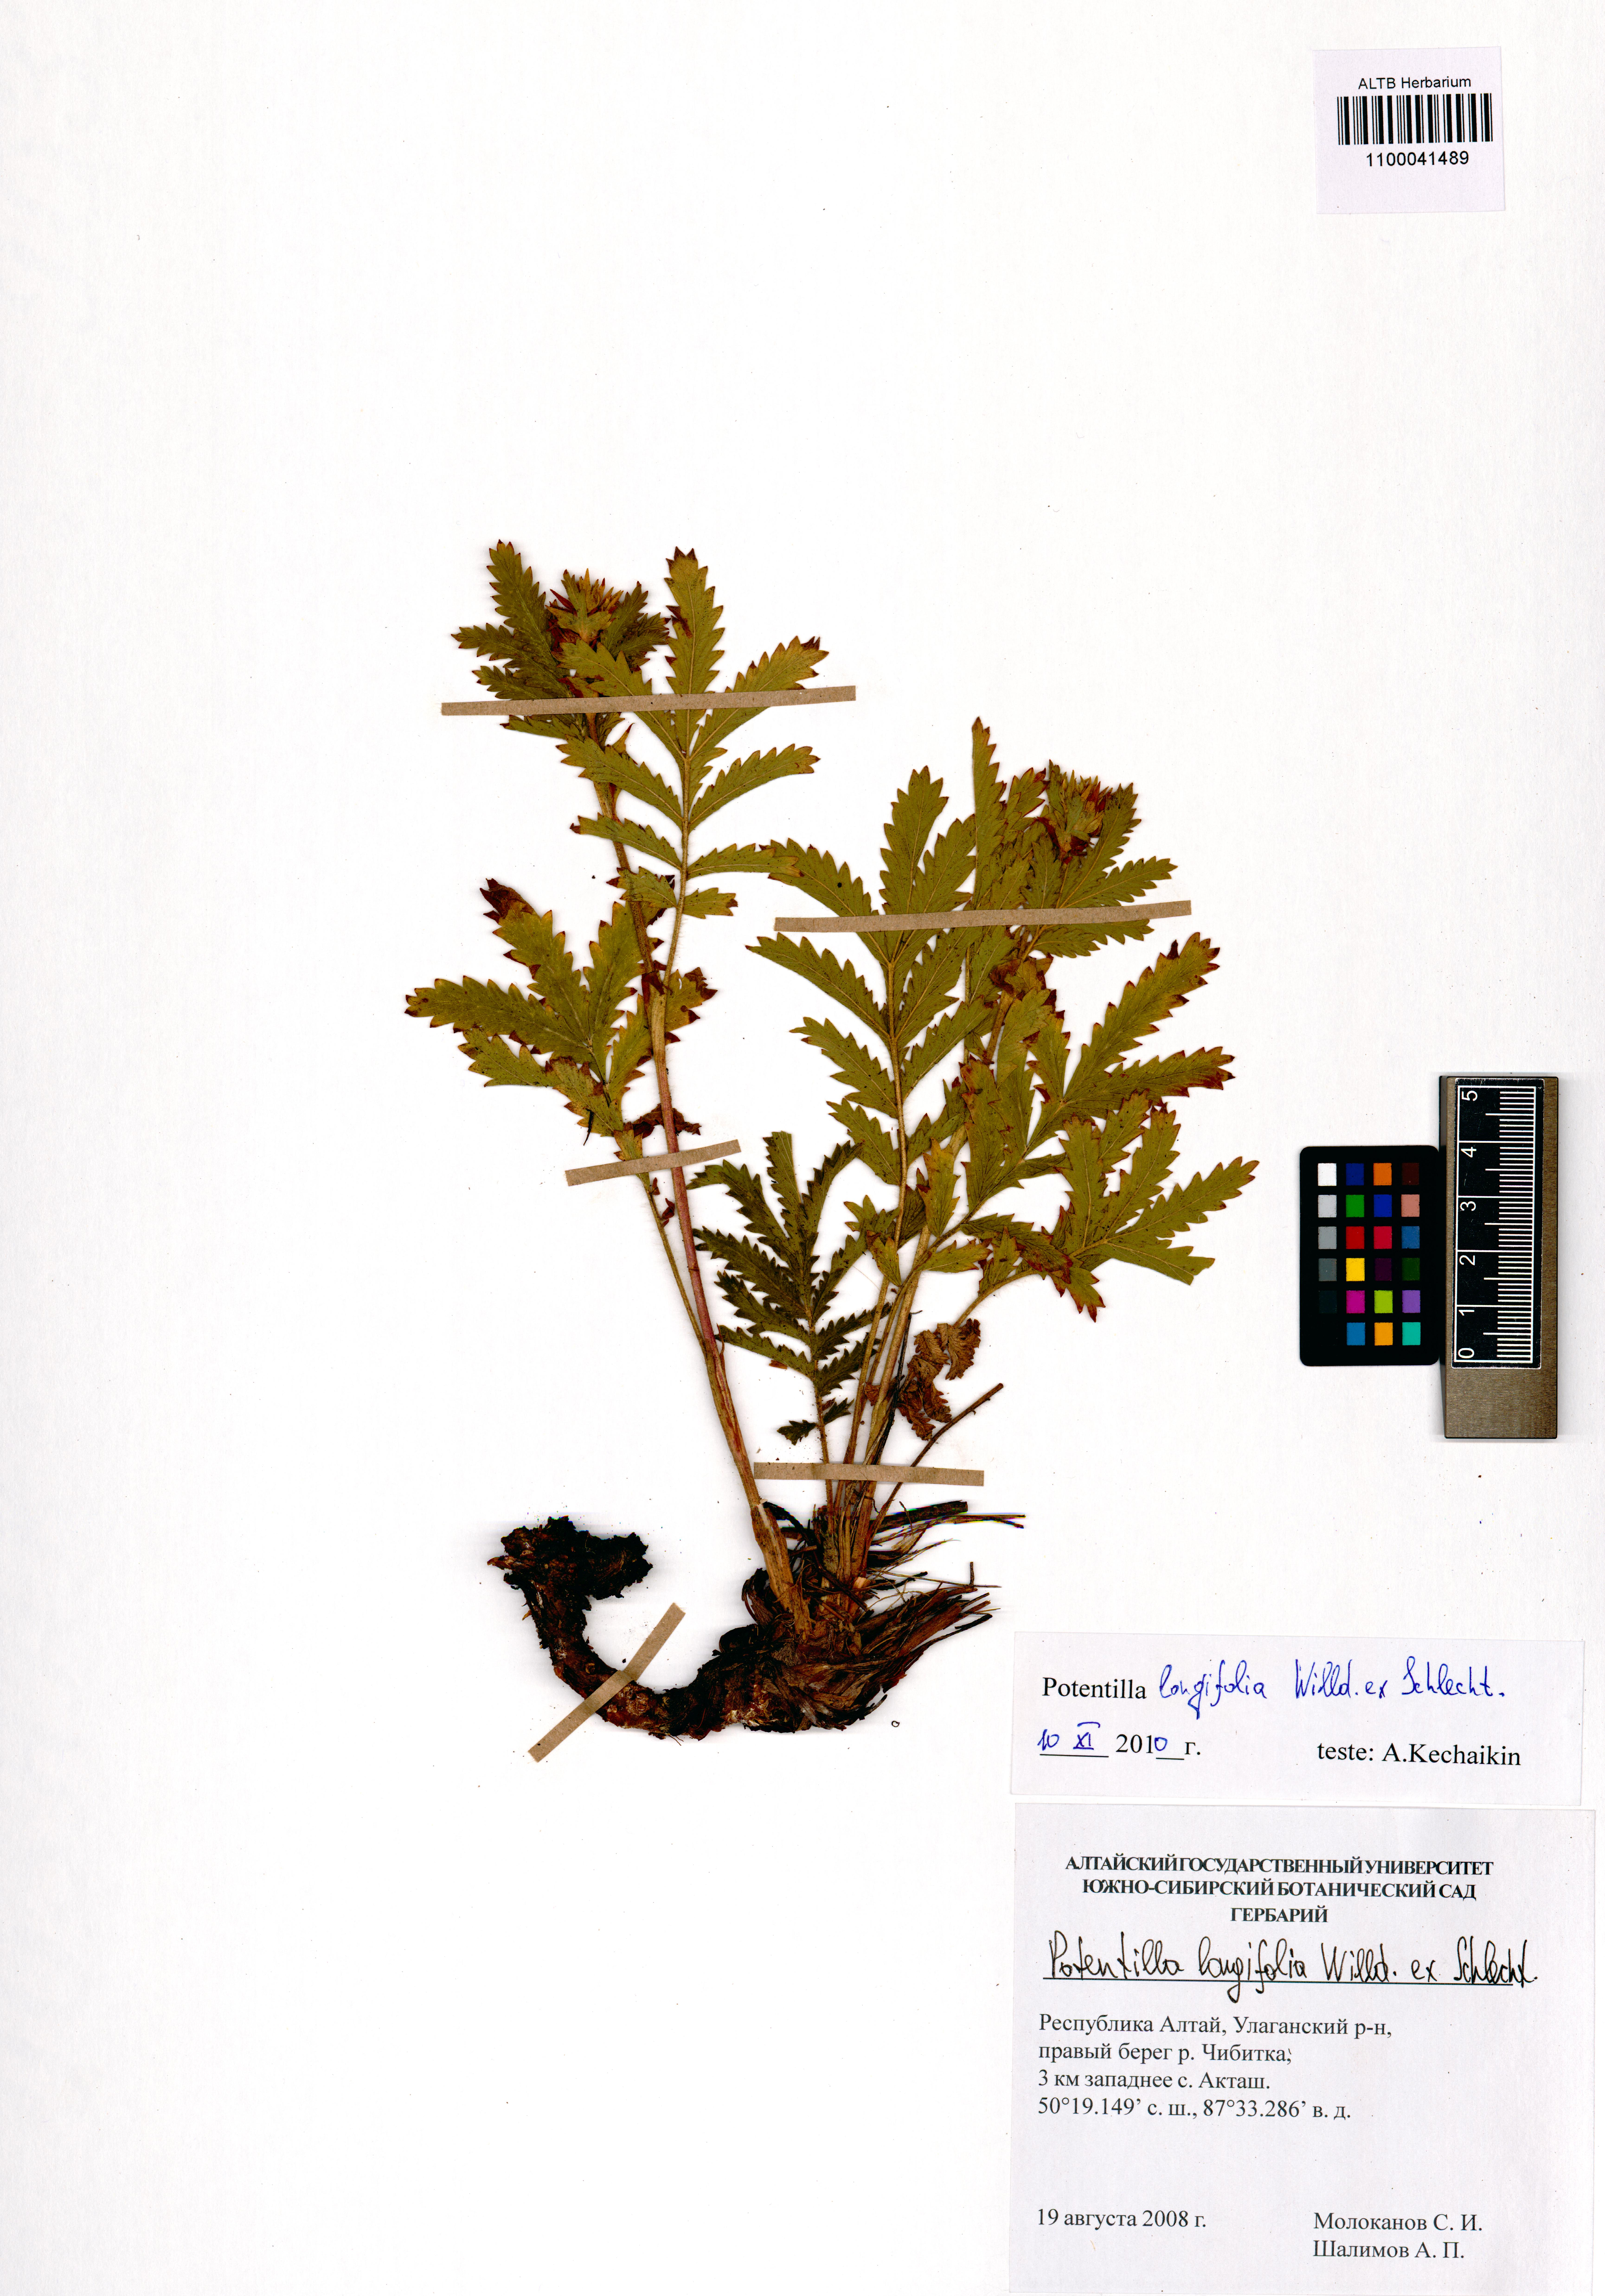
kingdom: Plantae
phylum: Tracheophyta
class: Magnoliopsida
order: Rosales
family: Rosaceae
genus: Potentilla
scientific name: Potentilla longifolia
